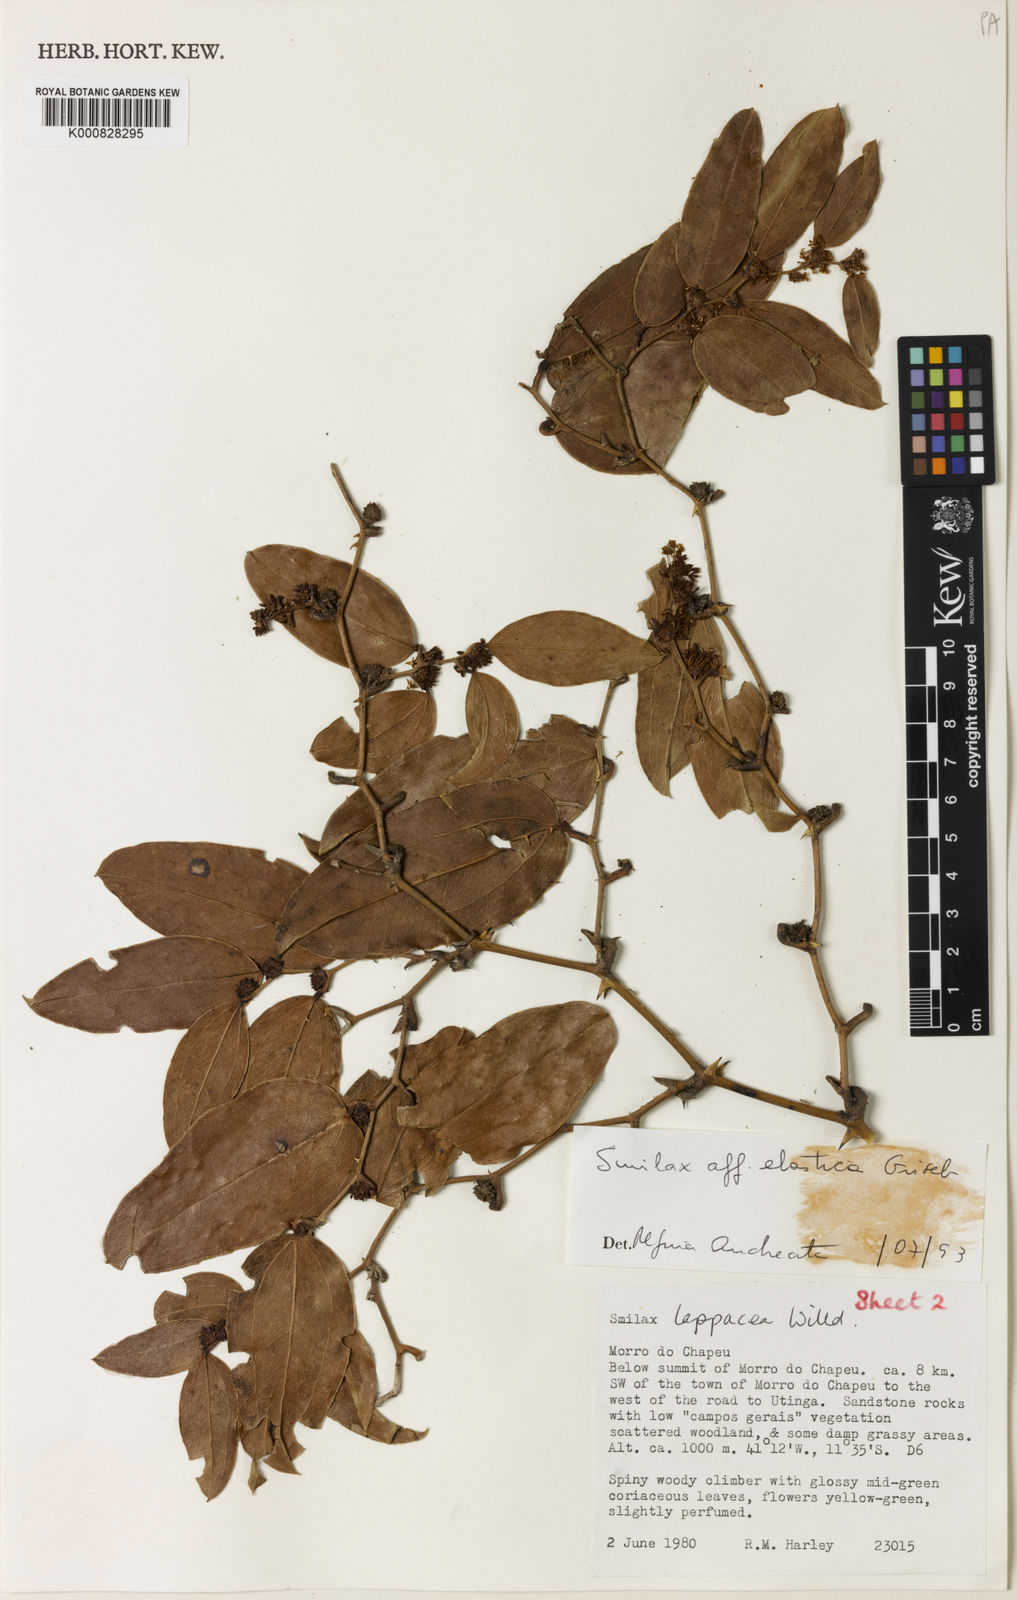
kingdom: Plantae
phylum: Tracheophyta
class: Liliopsida
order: Liliales
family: Smilacaceae
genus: Smilax
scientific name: Smilax elastica
